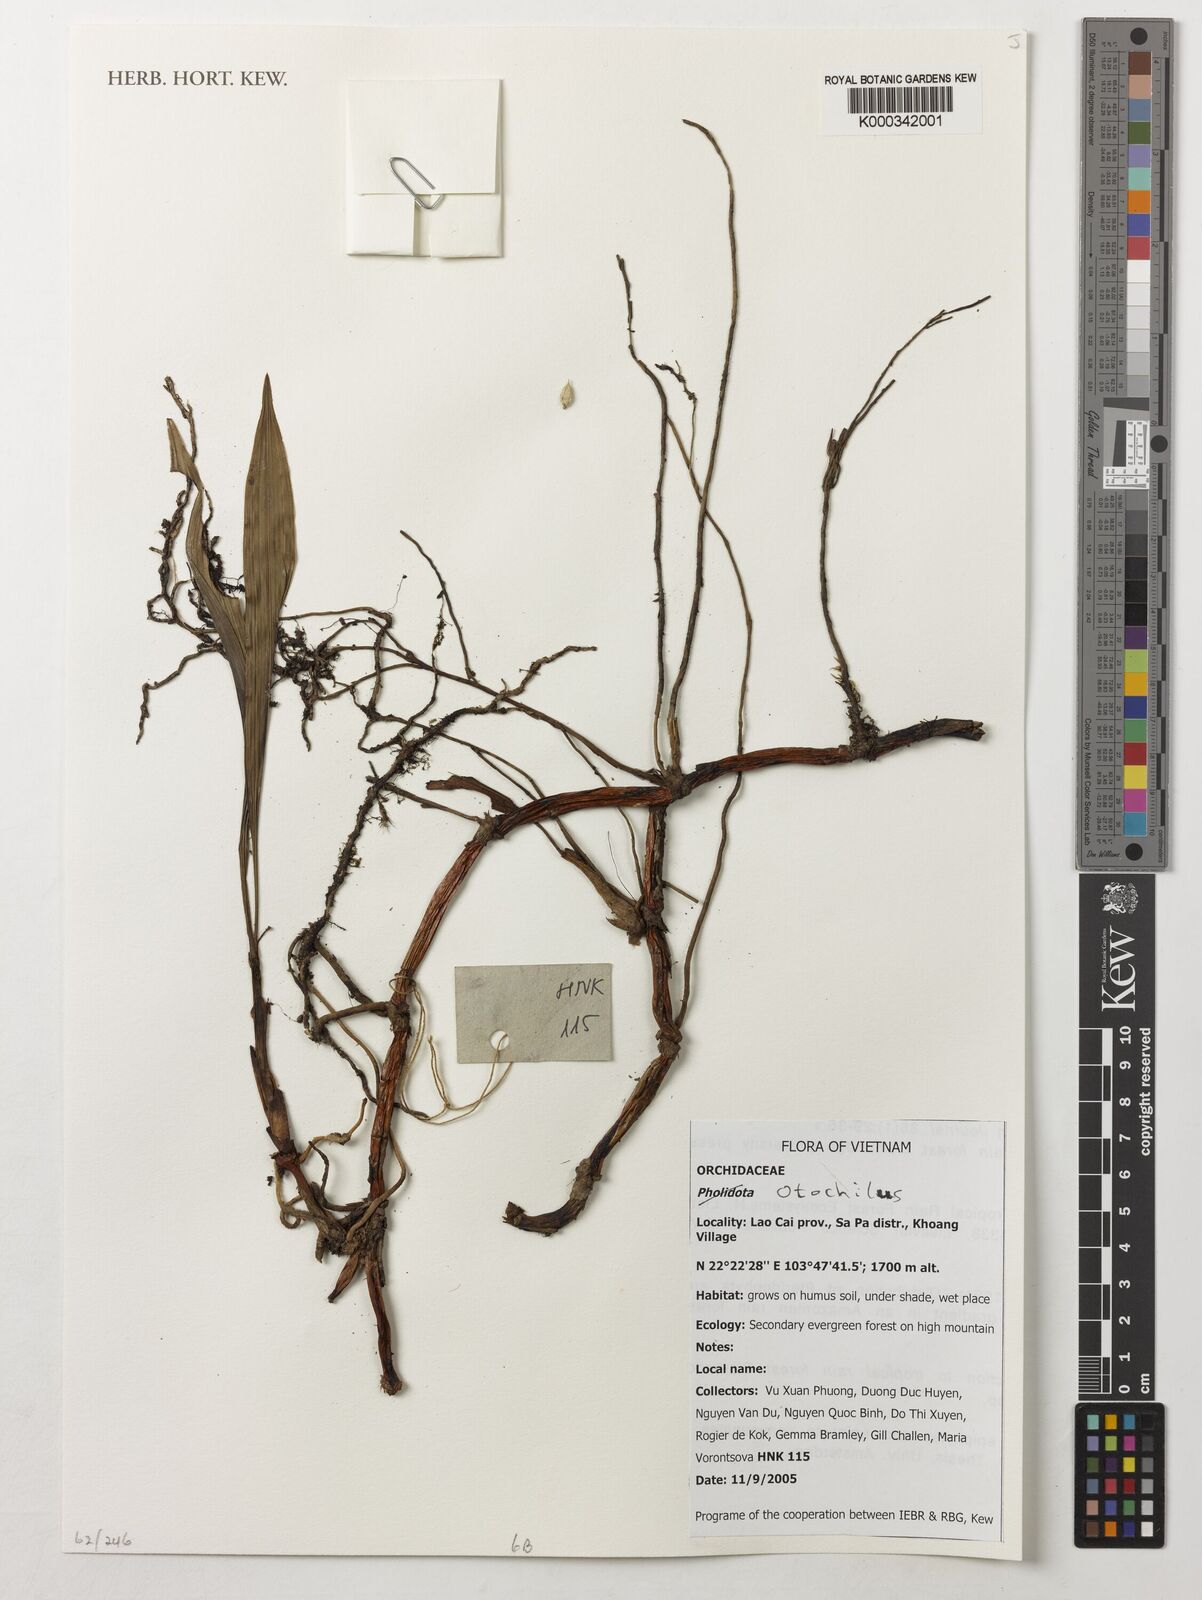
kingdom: Plantae
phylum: Tracheophyta
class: Liliopsida
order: Asparagales
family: Orchidaceae
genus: Coelogyne
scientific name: Coelogyne
